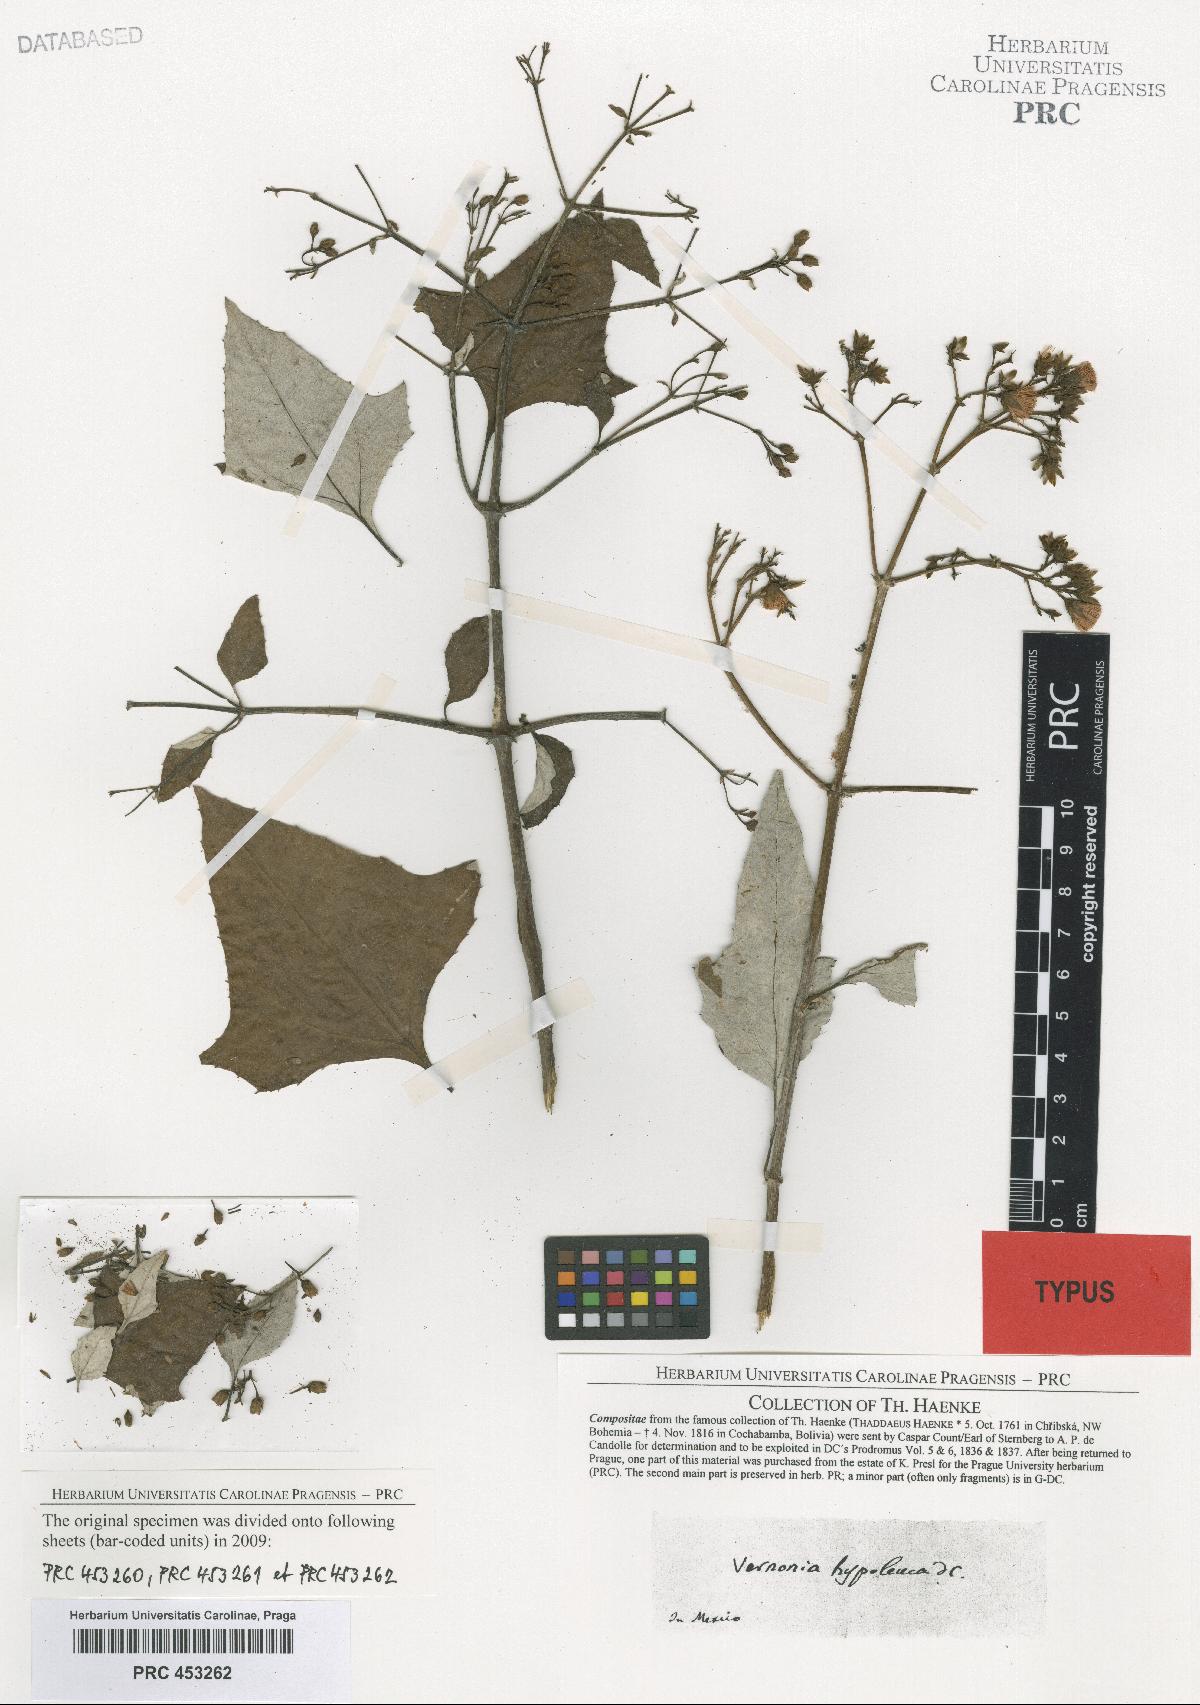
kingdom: Plantae
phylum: Tracheophyta
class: Magnoliopsida
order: Asterales
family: Asteraceae
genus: Sinclairia
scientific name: Sinclairia caducifolia
